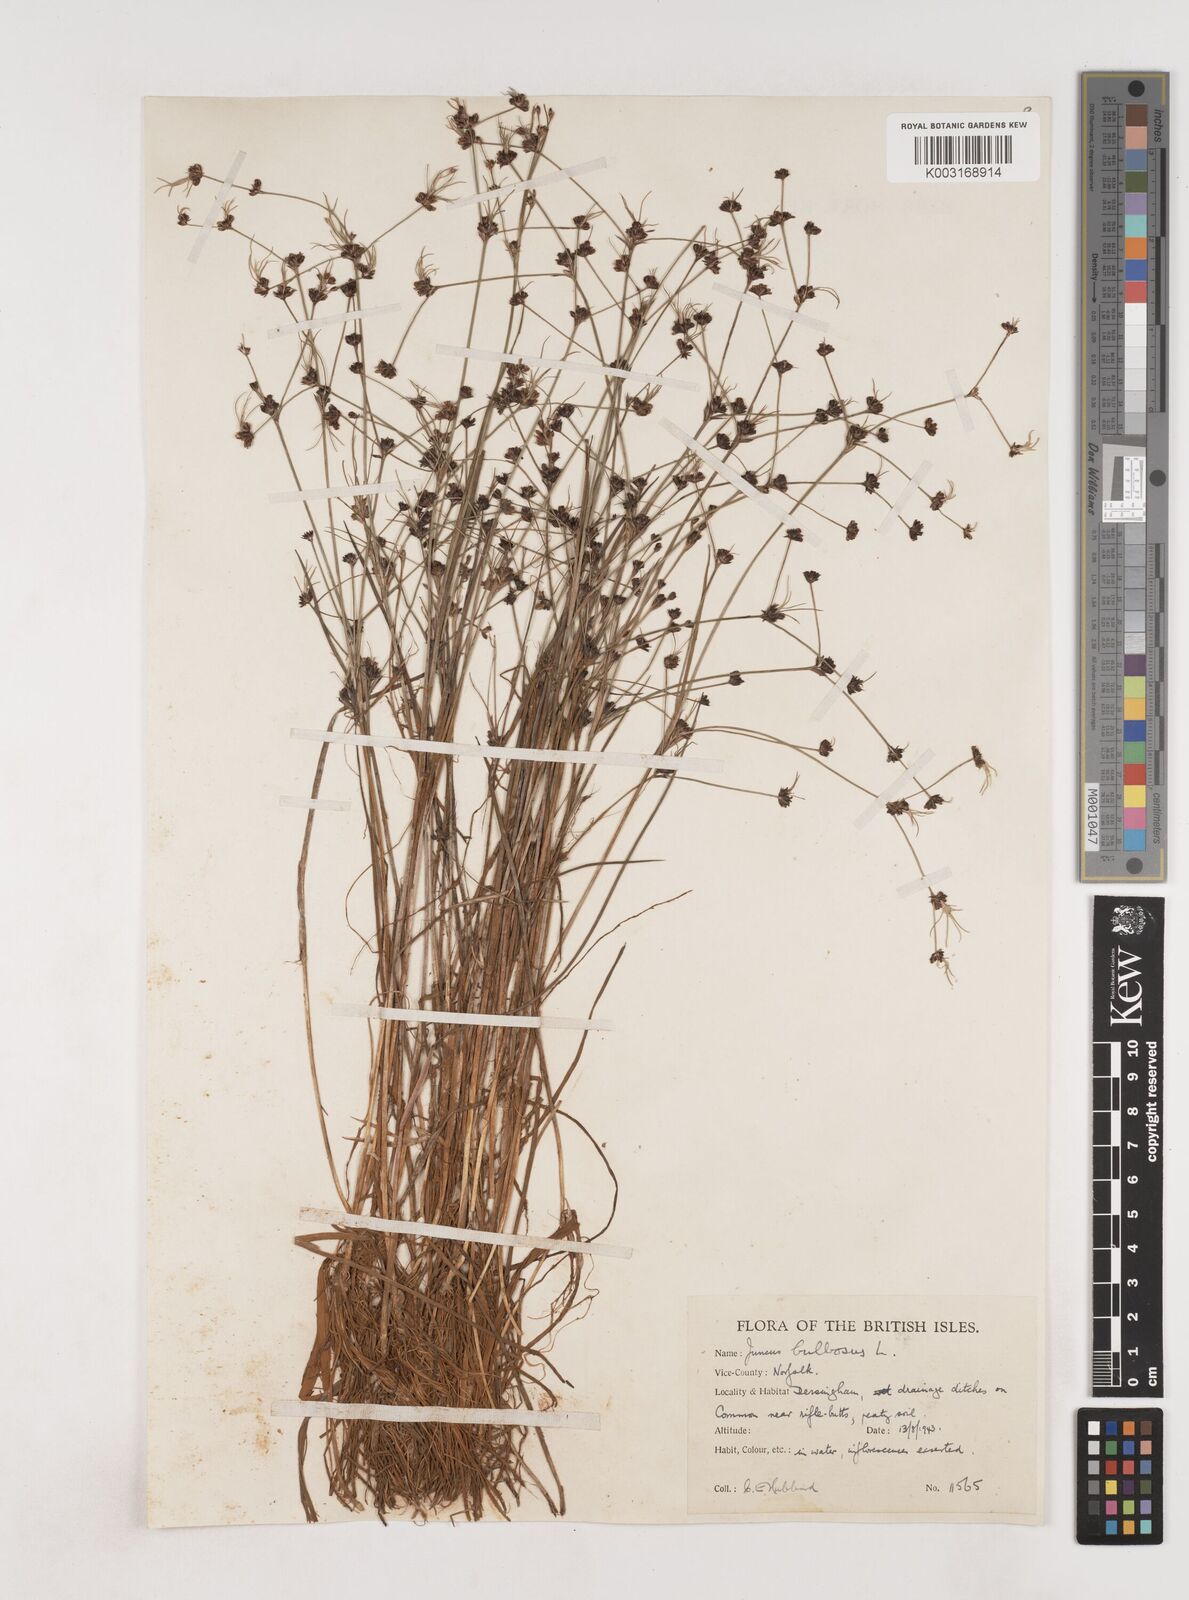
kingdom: Plantae
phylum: Tracheophyta
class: Liliopsida
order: Poales
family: Juncaceae
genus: Juncus
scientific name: Juncus bulbosus
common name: Bulbous rush
